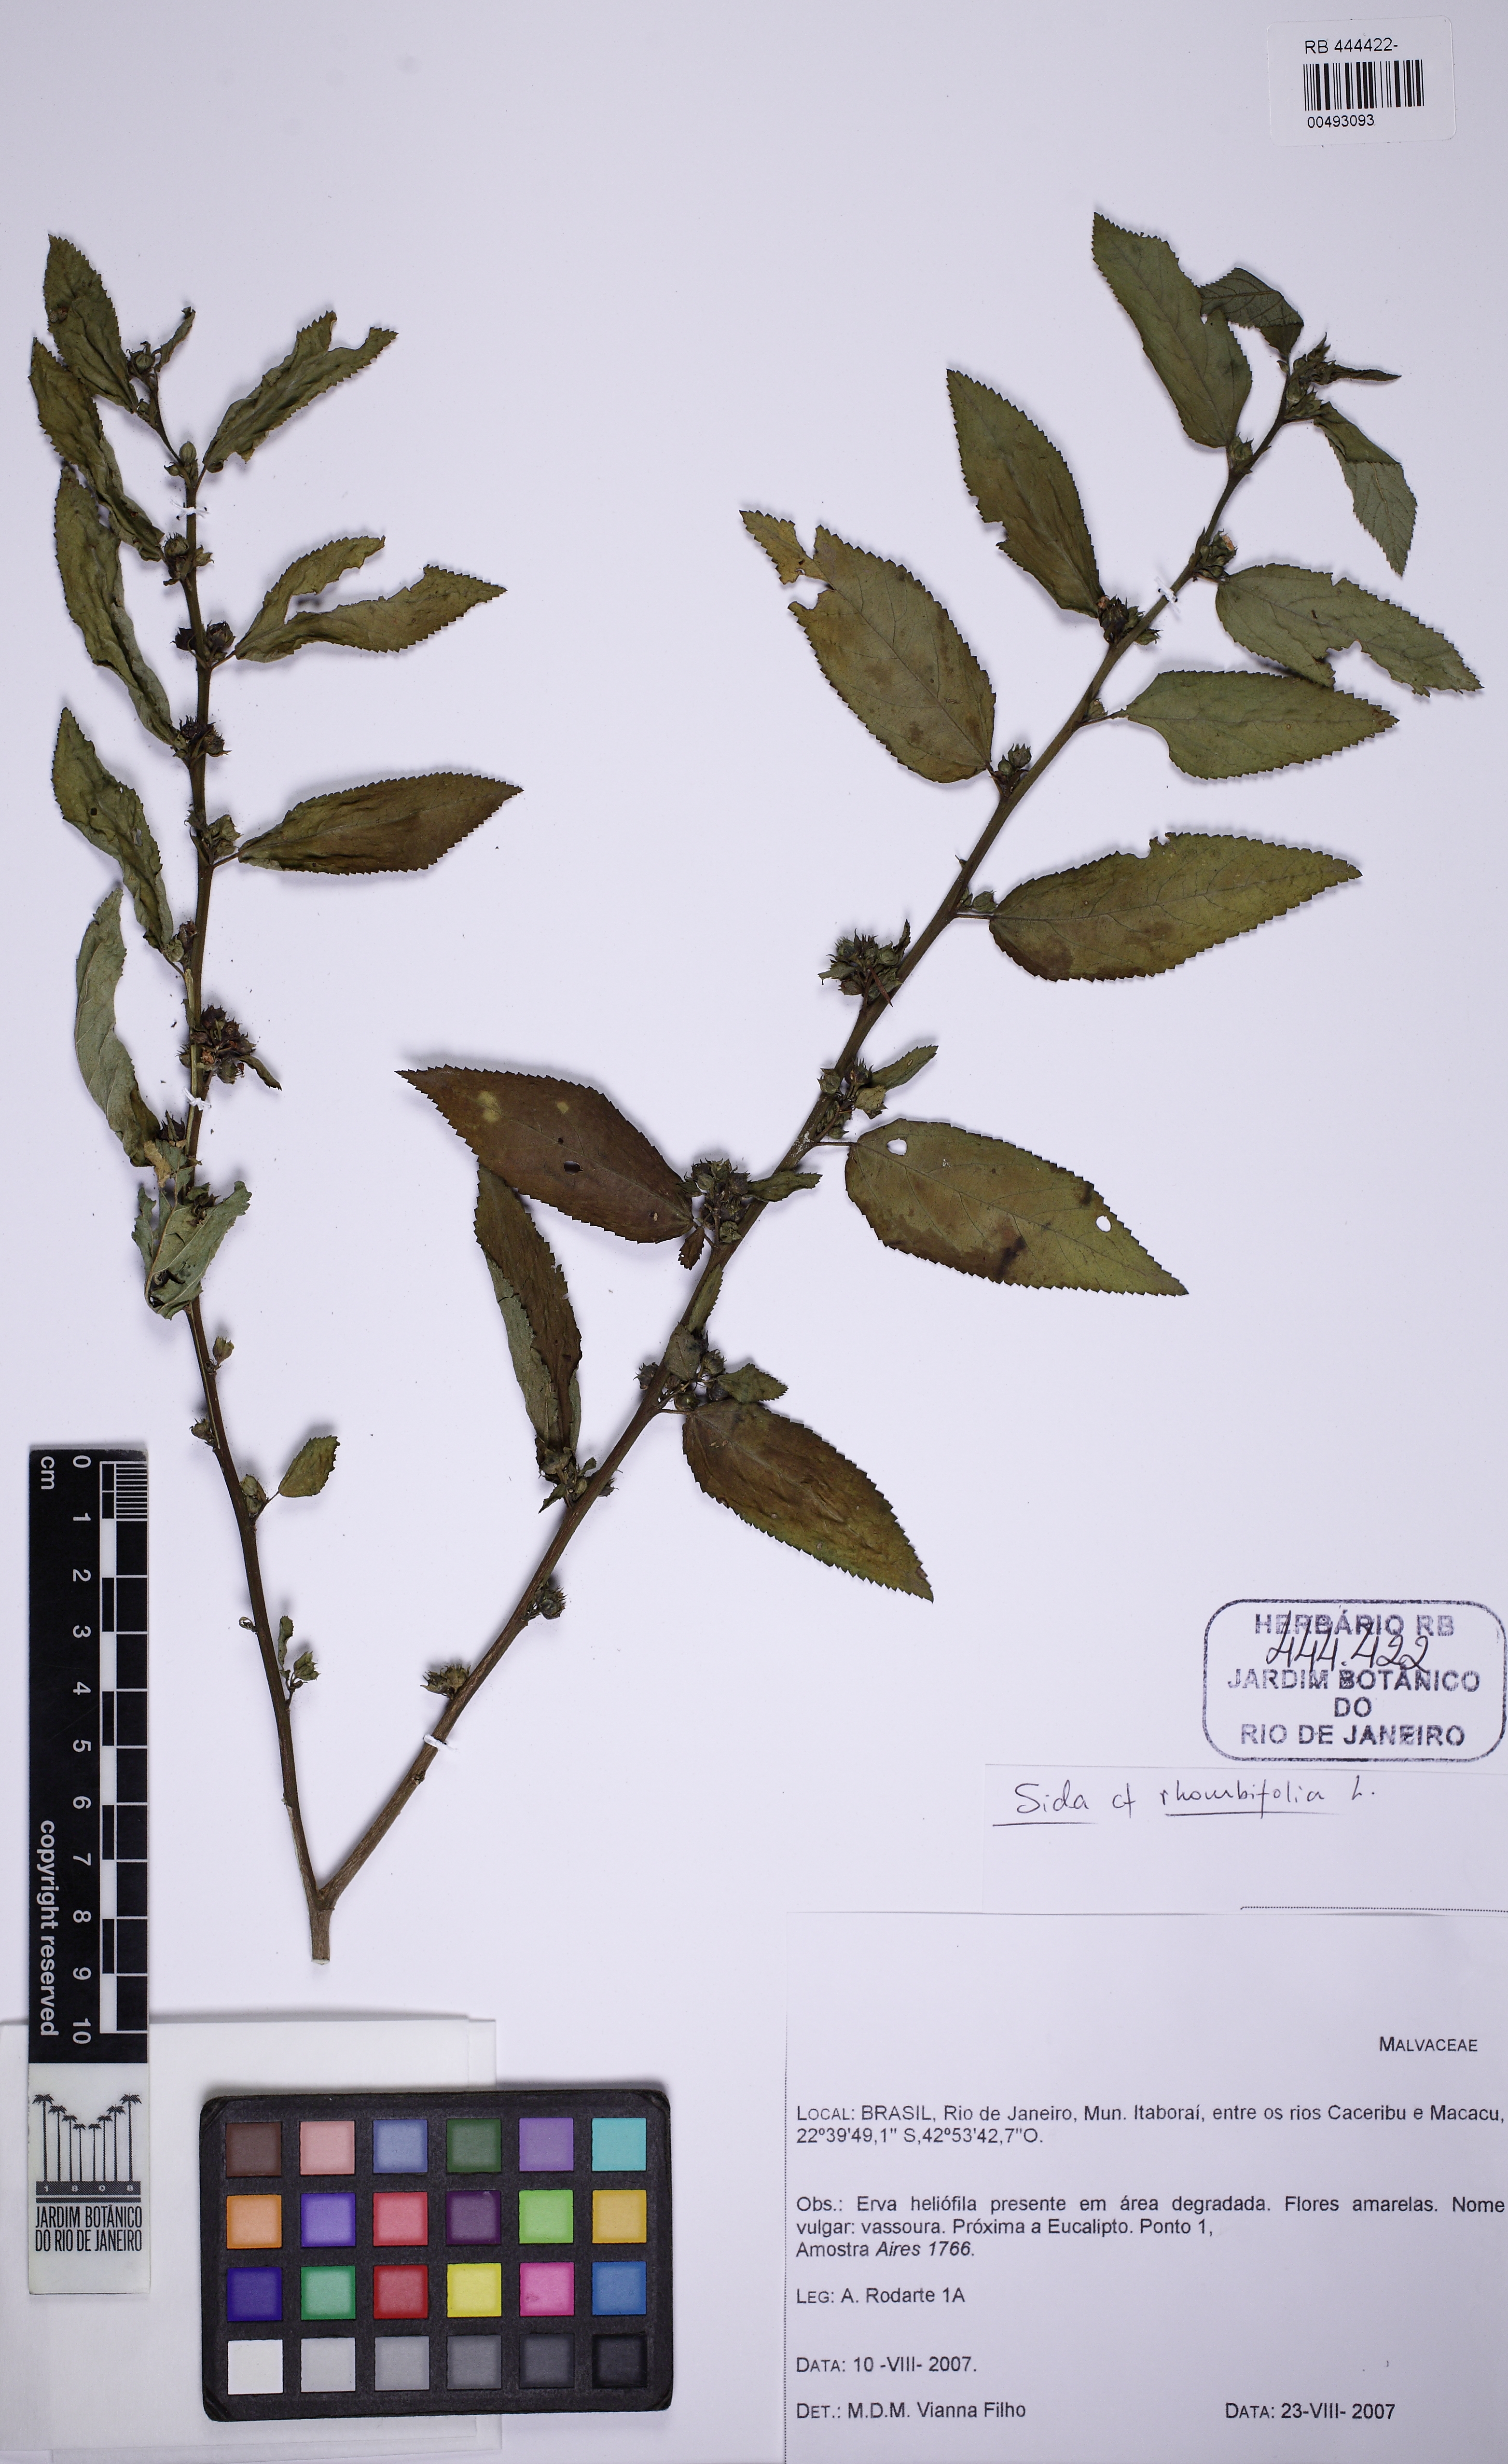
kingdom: Plantae
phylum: Tracheophyta
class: Magnoliopsida
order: Malvales
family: Malvaceae
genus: Sida
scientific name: Sida rhombifolia
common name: Queensland-hemp
